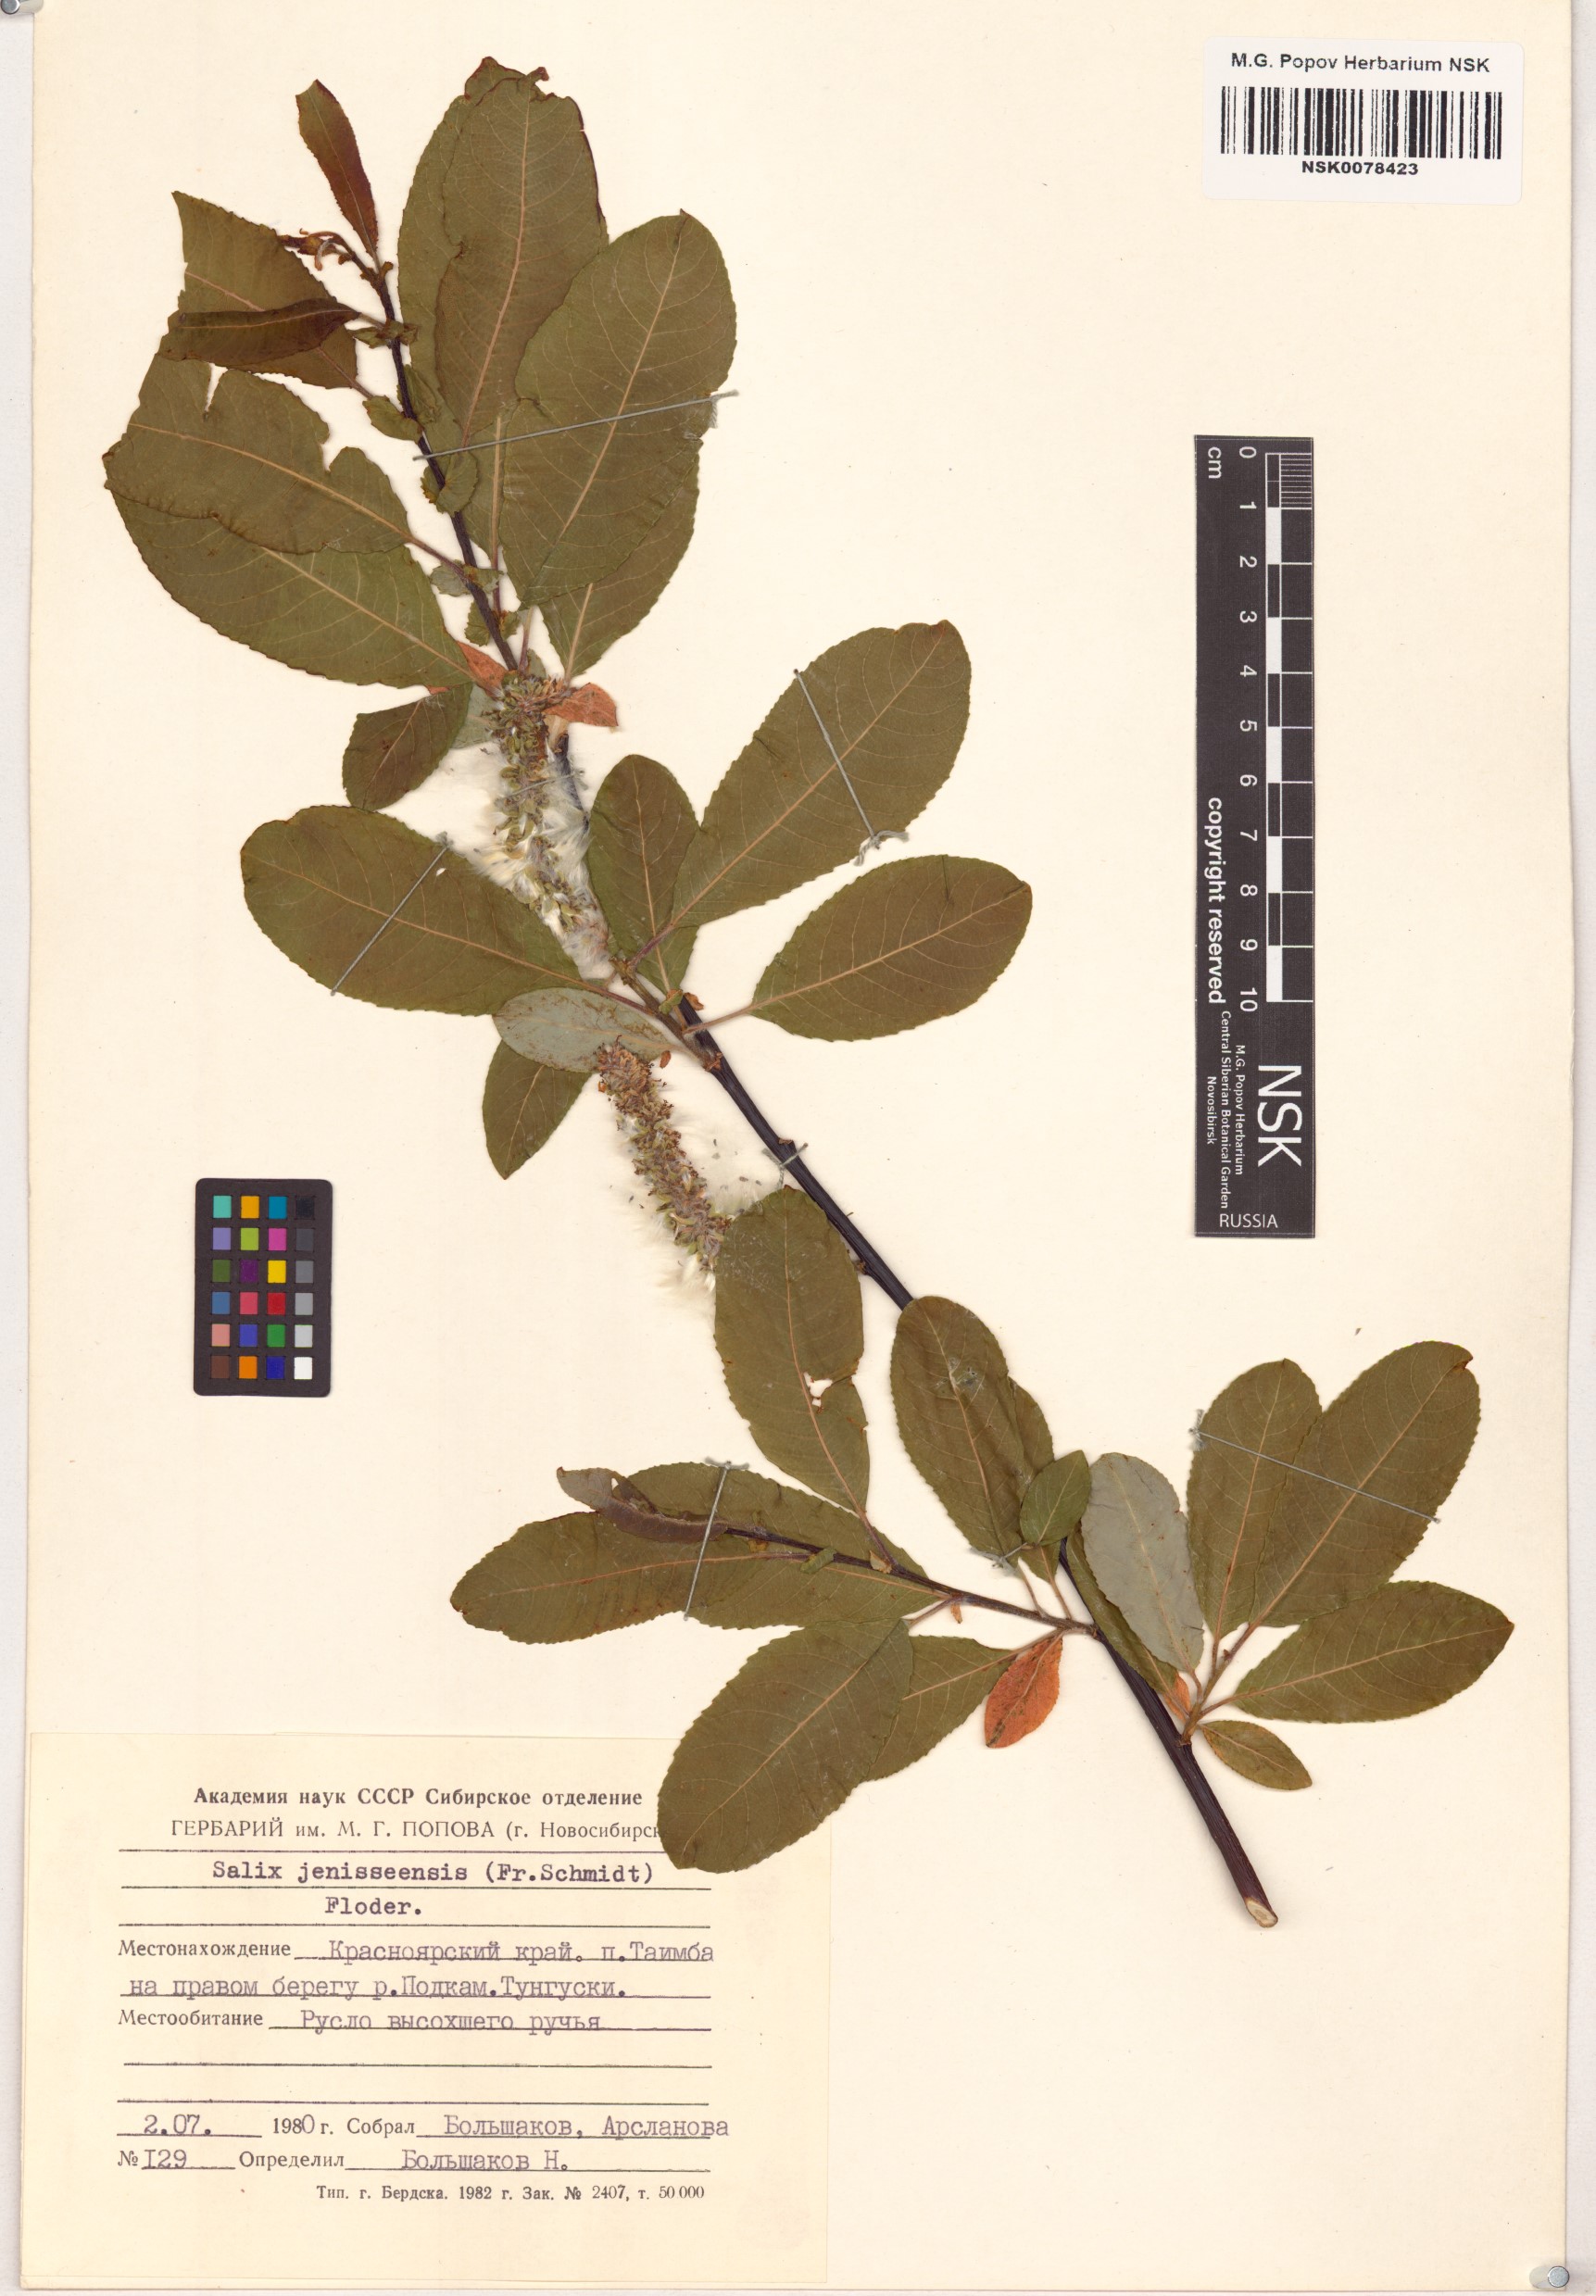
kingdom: Plantae
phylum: Tracheophyta
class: Magnoliopsida
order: Malpighiales
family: Salicaceae
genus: Salix
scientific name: Salix jenisseensis
